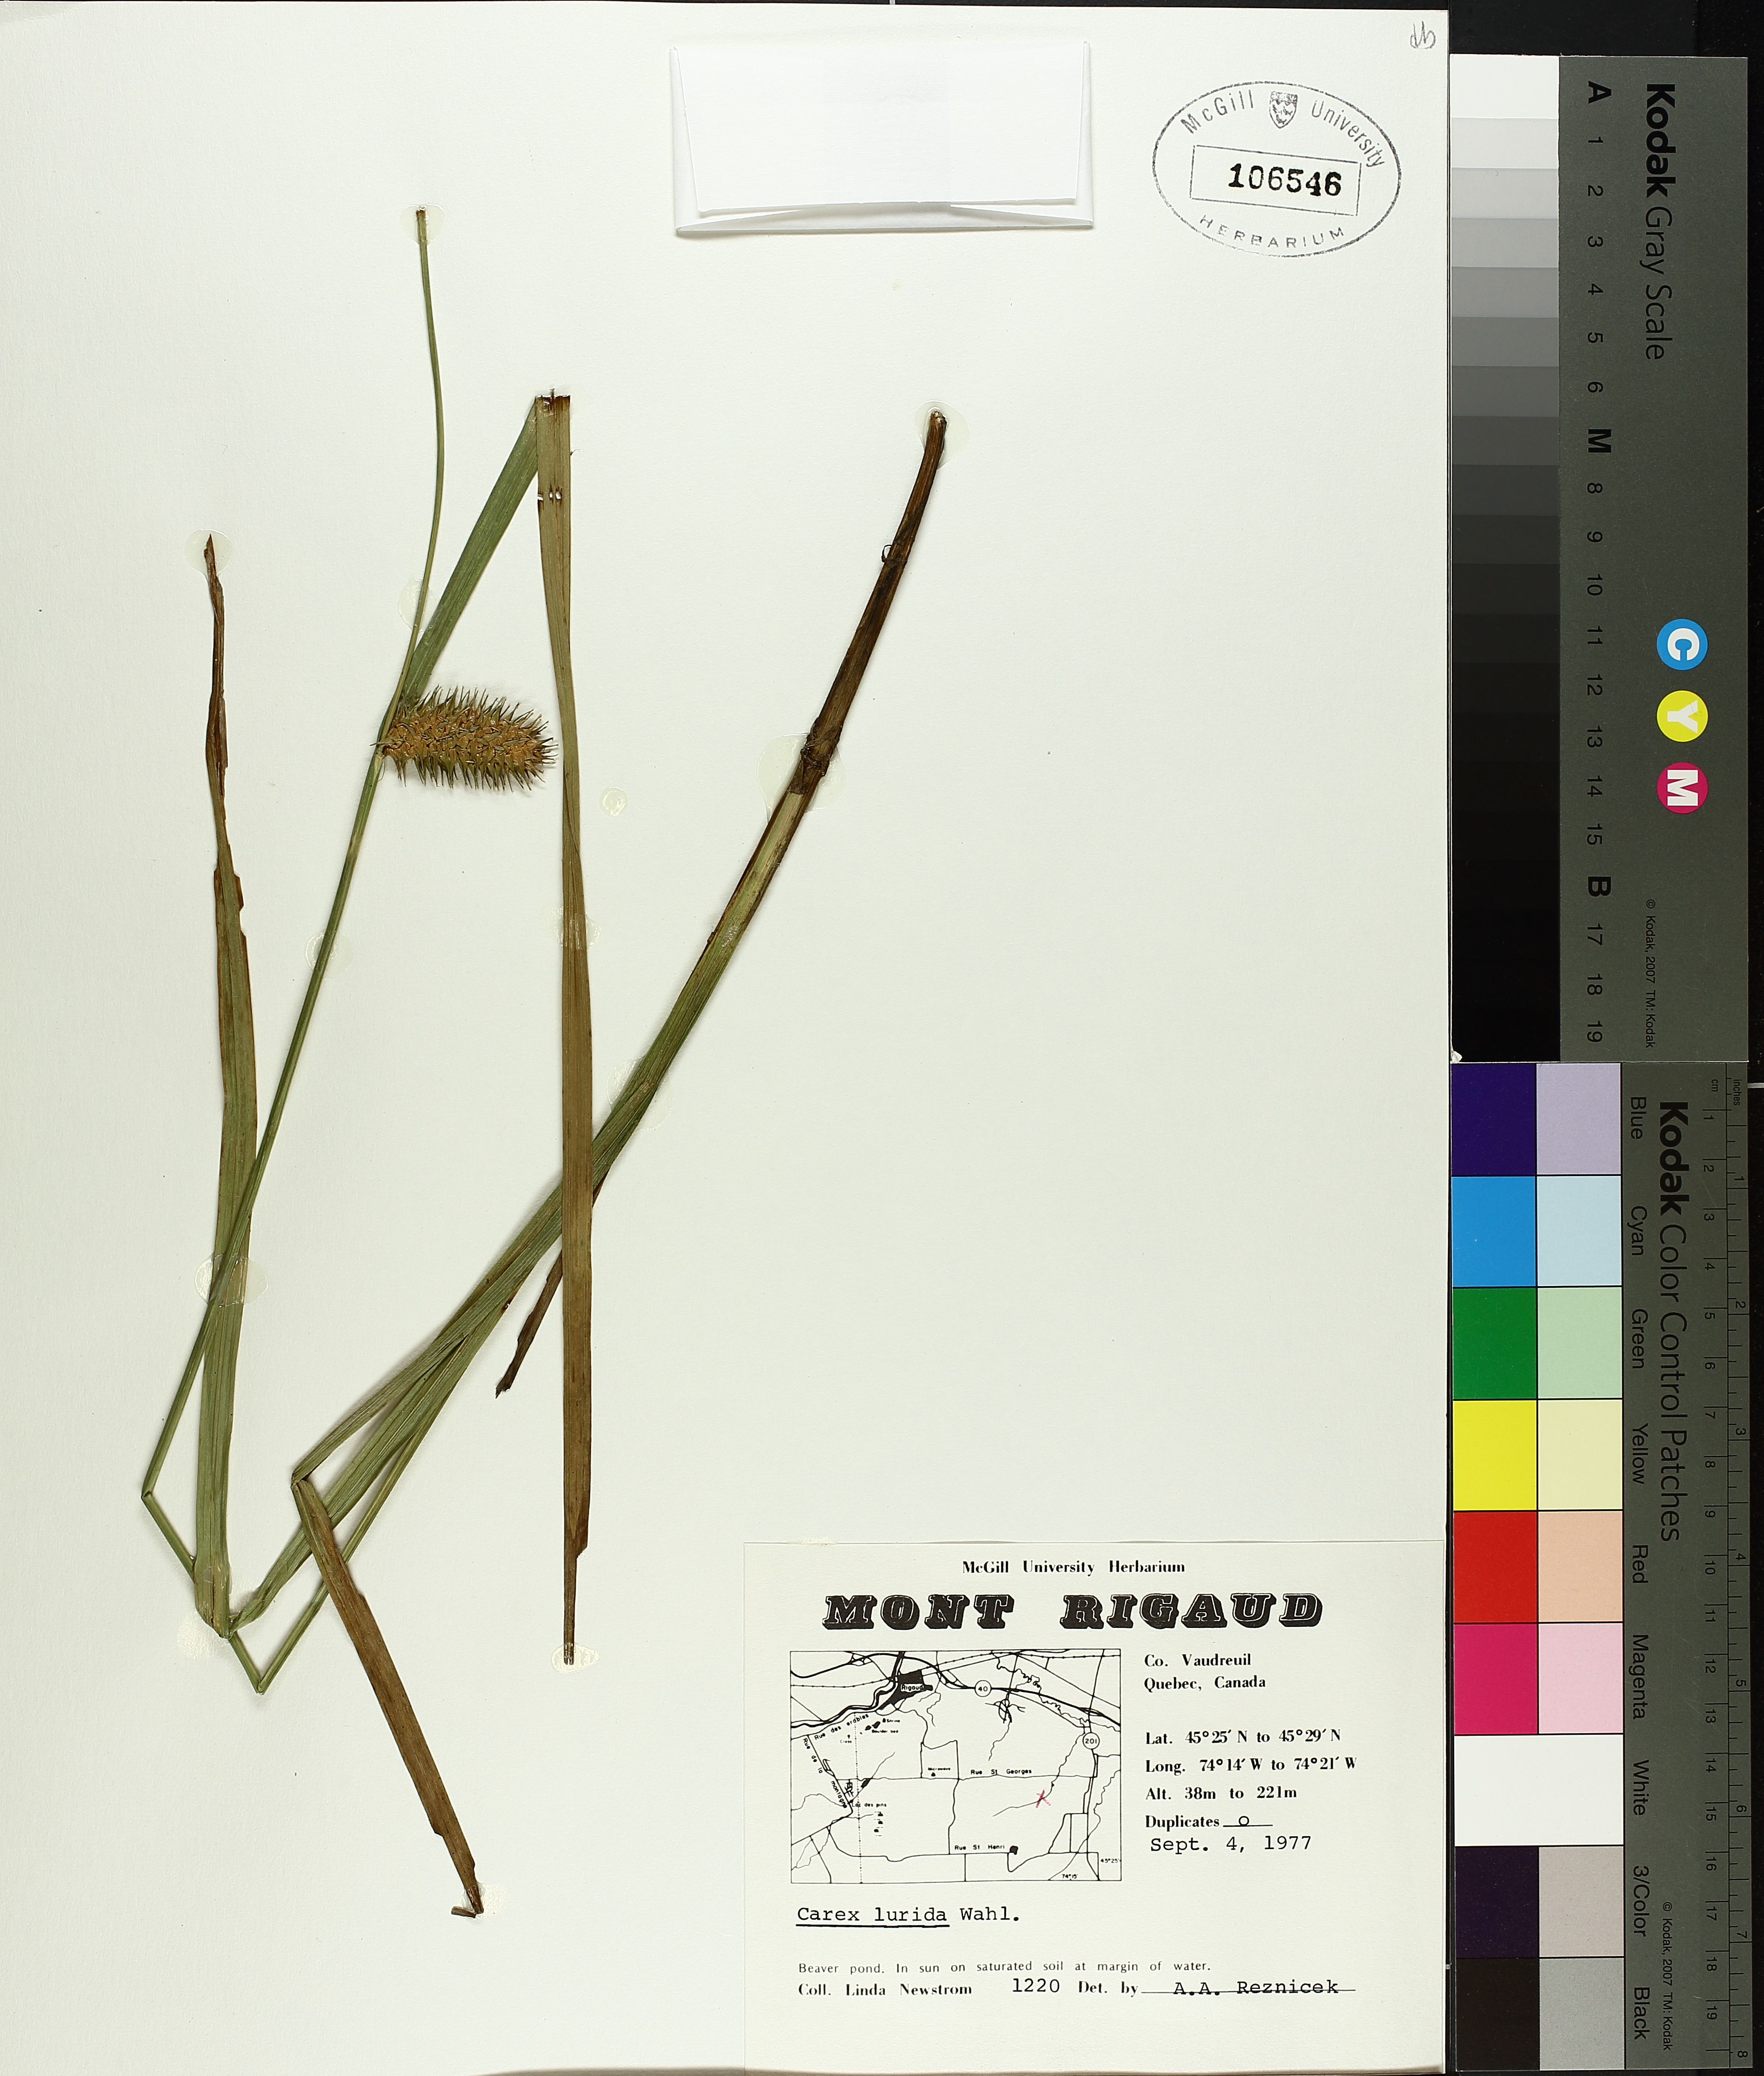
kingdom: Plantae
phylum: Tracheophyta
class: Liliopsida
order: Poales
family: Cyperaceae
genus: Carex
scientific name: Carex lurida
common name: Sallow sedge
